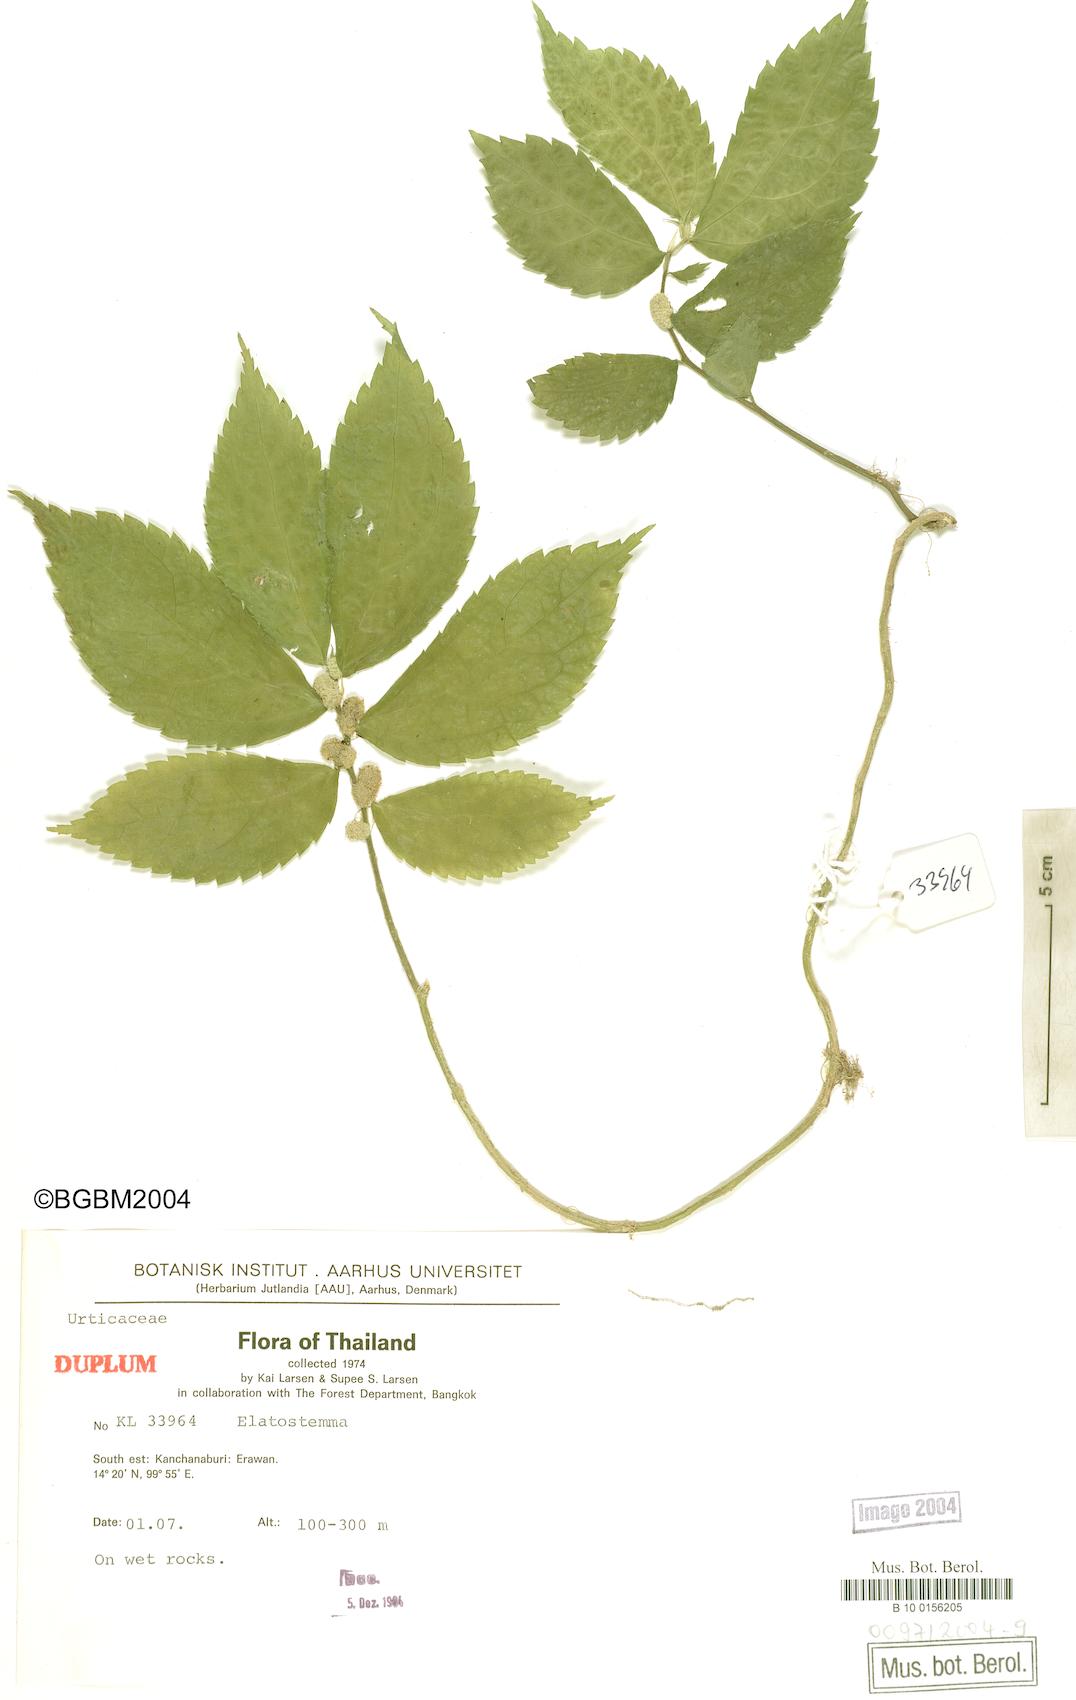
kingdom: Plantae
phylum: Tracheophyta
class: Magnoliopsida
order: Rosales
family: Urticaceae
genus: Elatostema
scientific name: Elatostema
